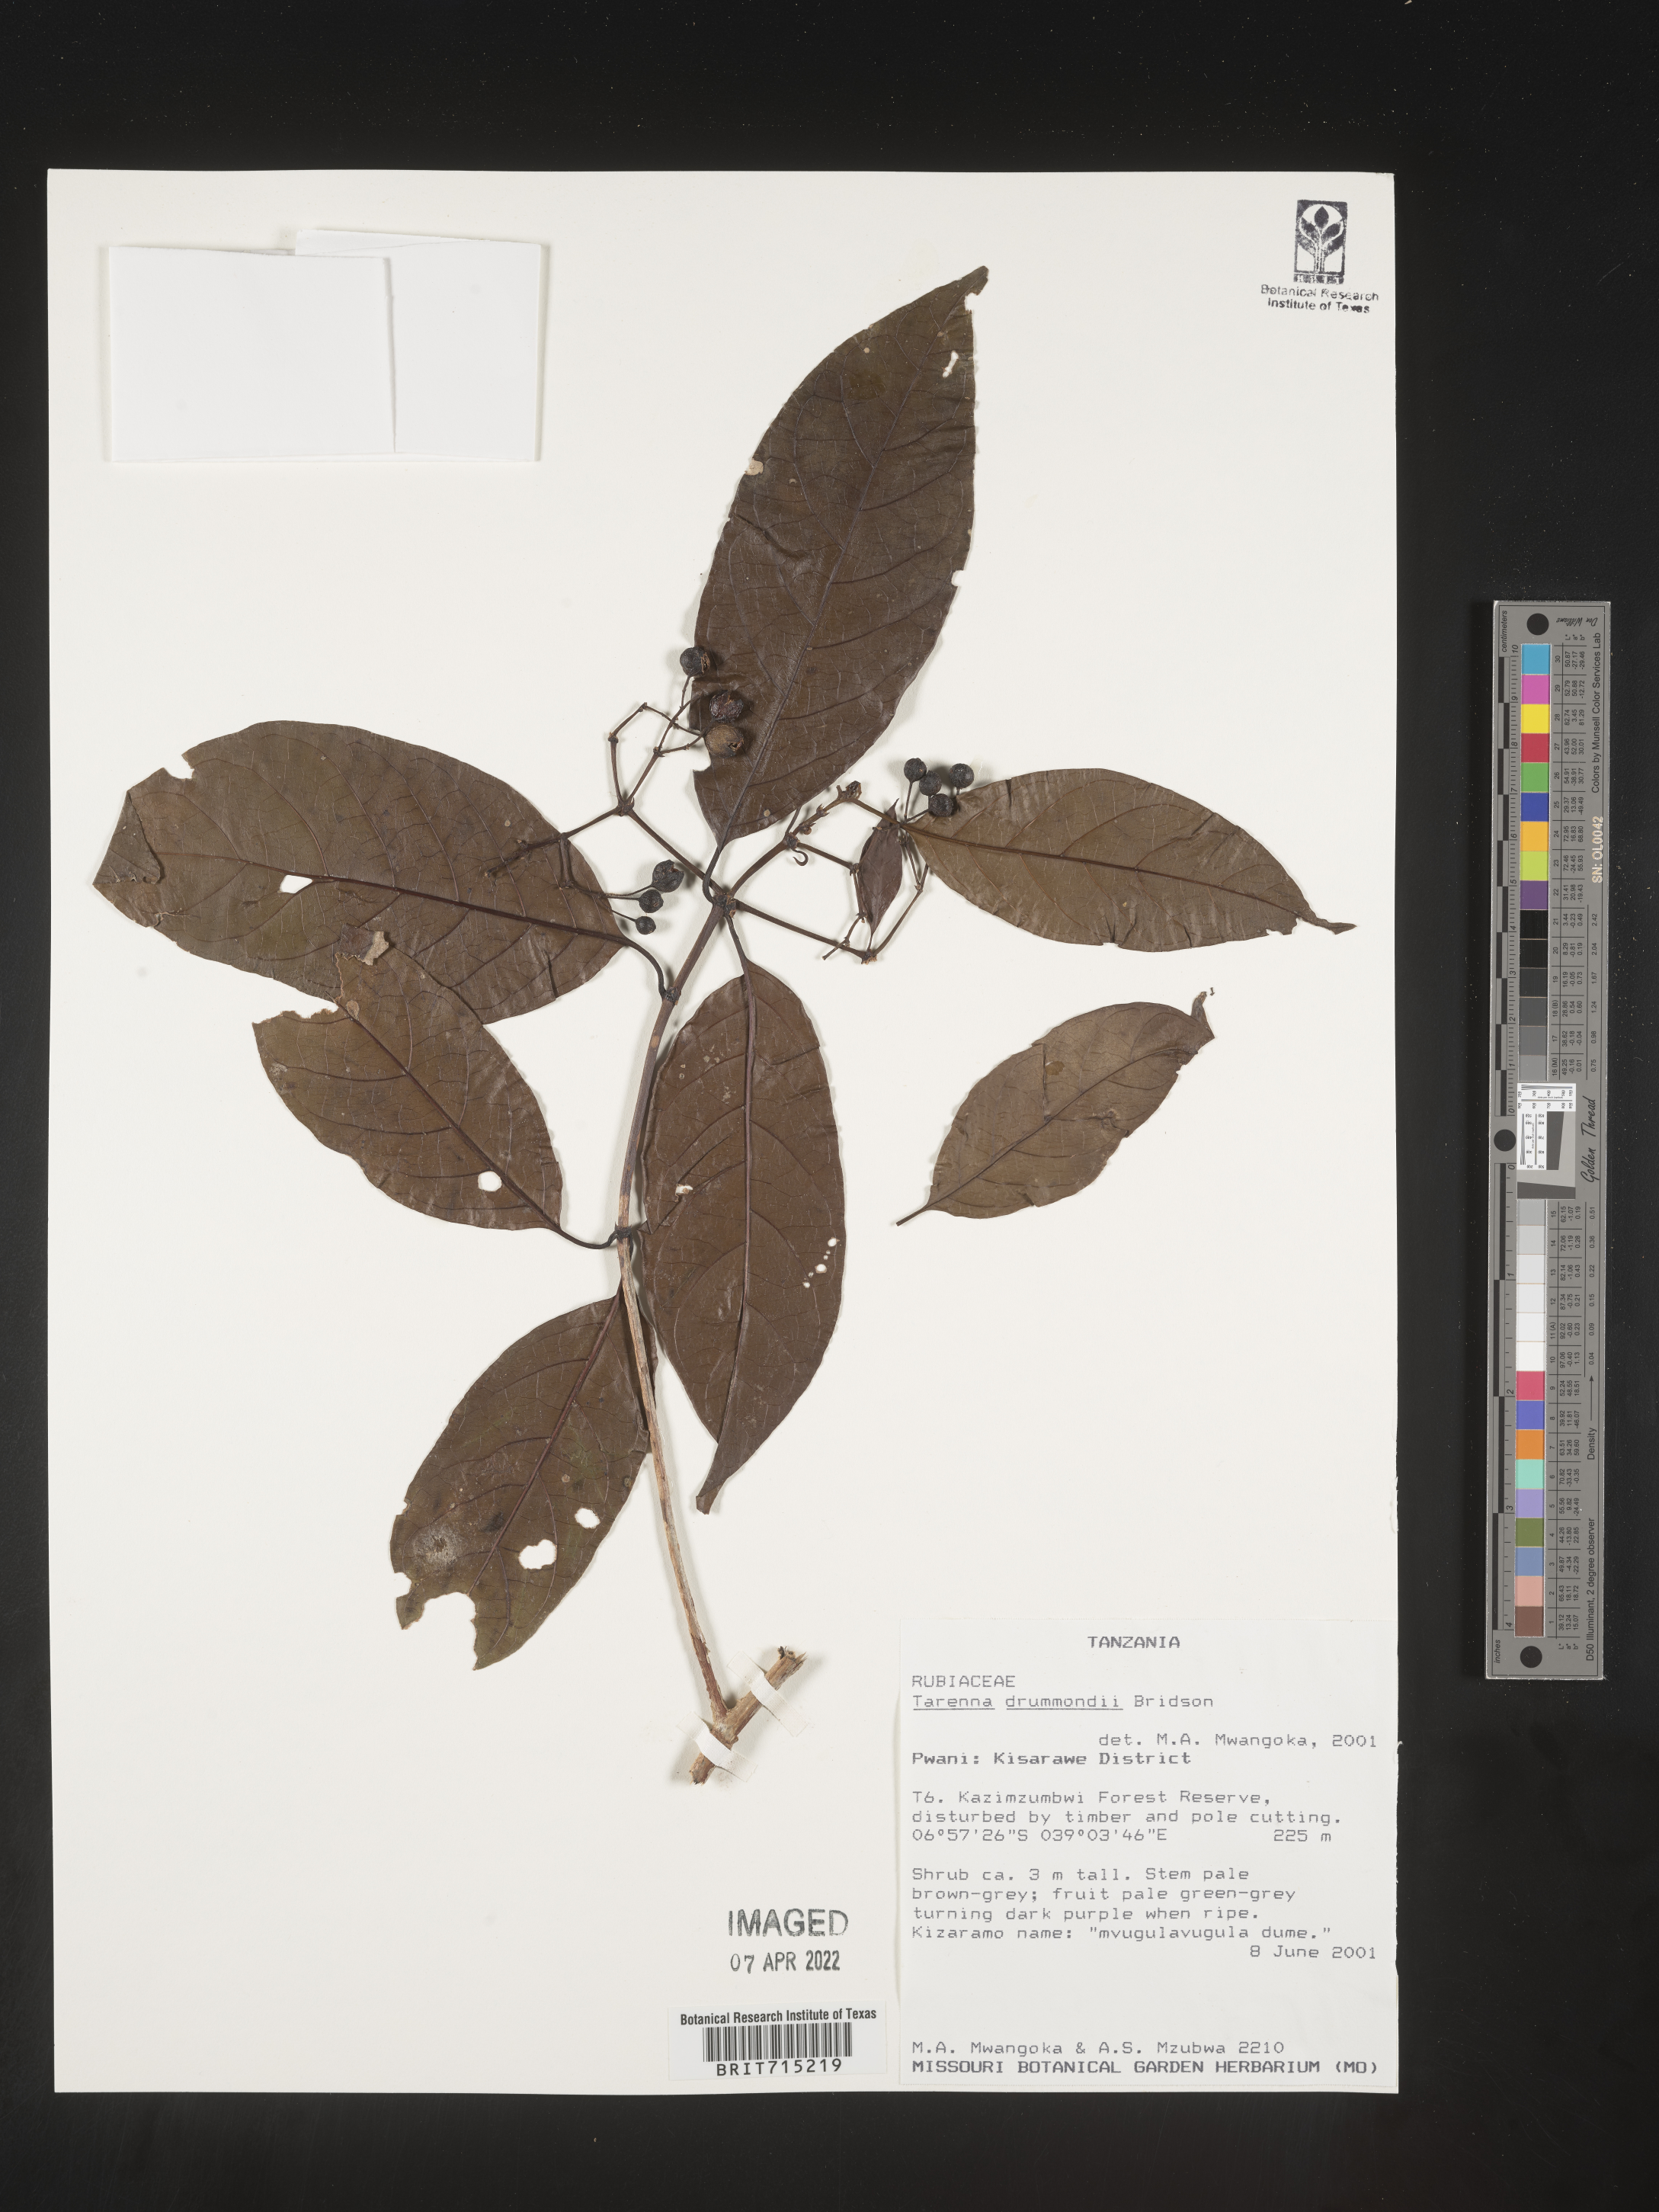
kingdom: Plantae
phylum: Tracheophyta
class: Magnoliopsida
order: Gentianales
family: Rubiaceae
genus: Tarenna
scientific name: Tarenna
